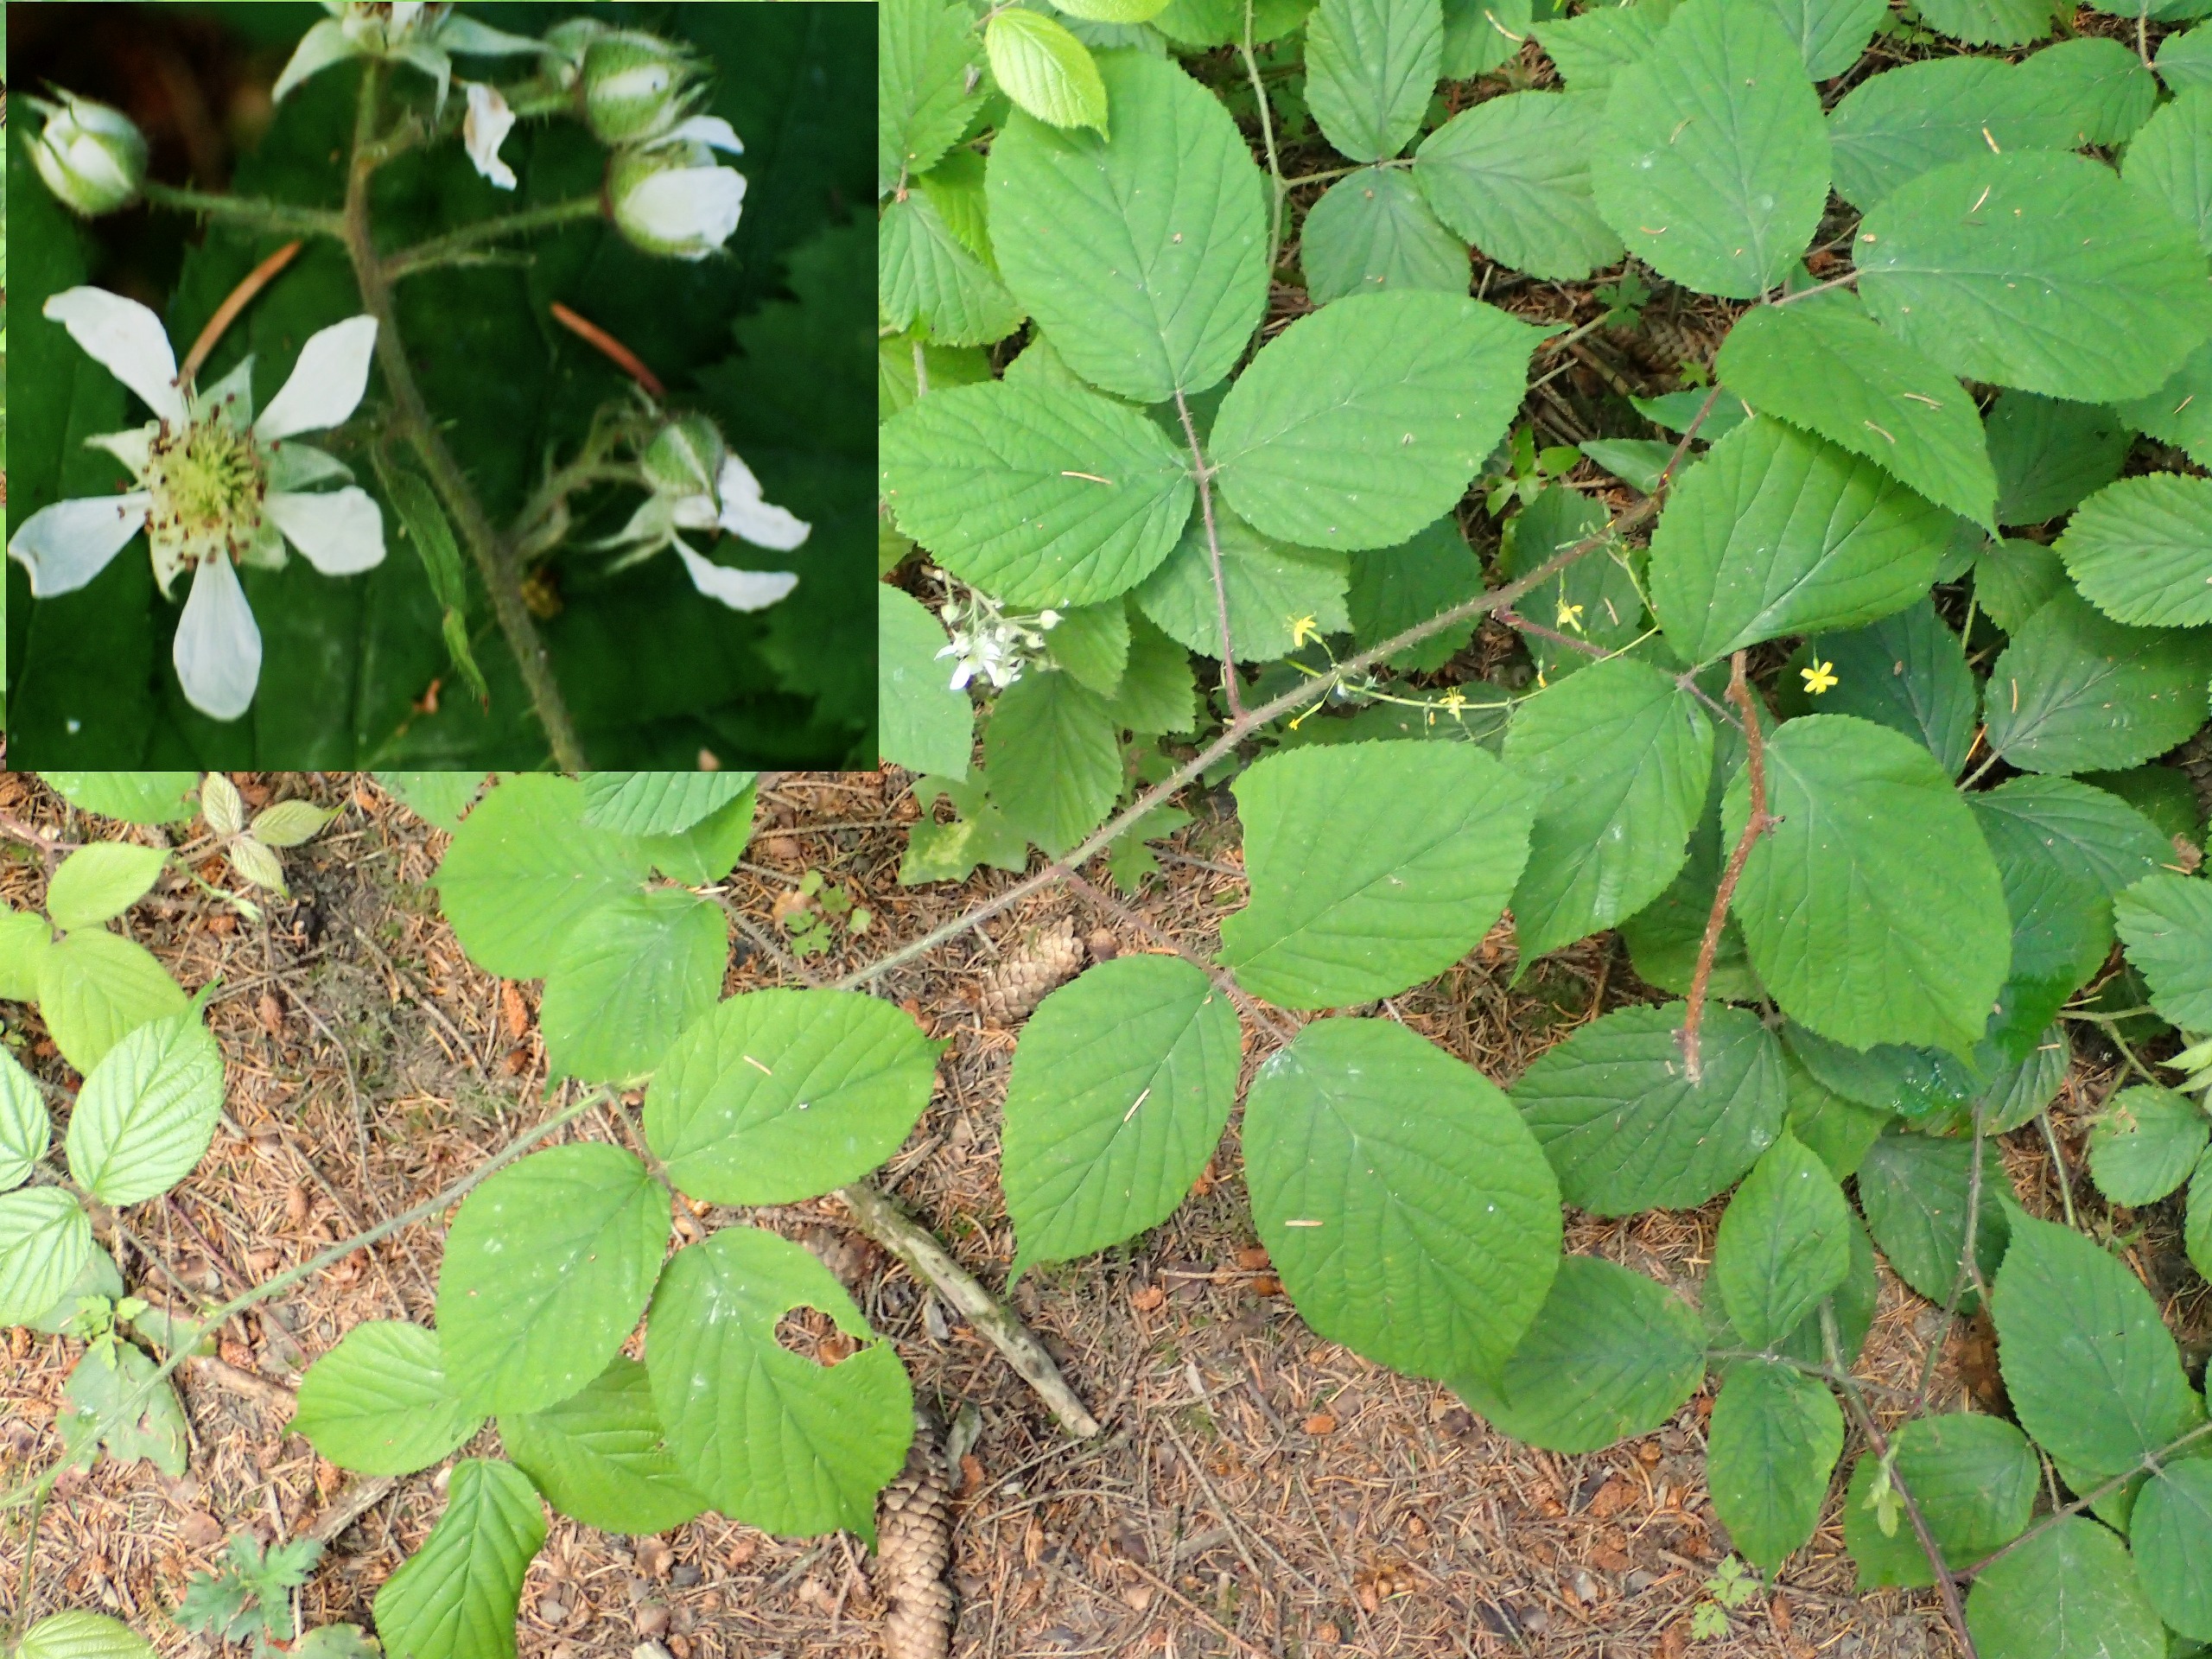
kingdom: Plantae
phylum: Tracheophyta
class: Magnoliopsida
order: Rosales
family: Rosaceae
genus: Rubus
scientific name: Rubus nigricans
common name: Trebladet brombær
